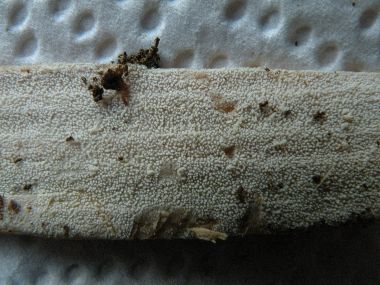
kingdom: Fungi
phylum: Basidiomycota
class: Agaricomycetes
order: Hymenochaetales
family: Rickenellaceae
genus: Resinicium
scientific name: Resinicium bicolor
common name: almindelig vokstand
